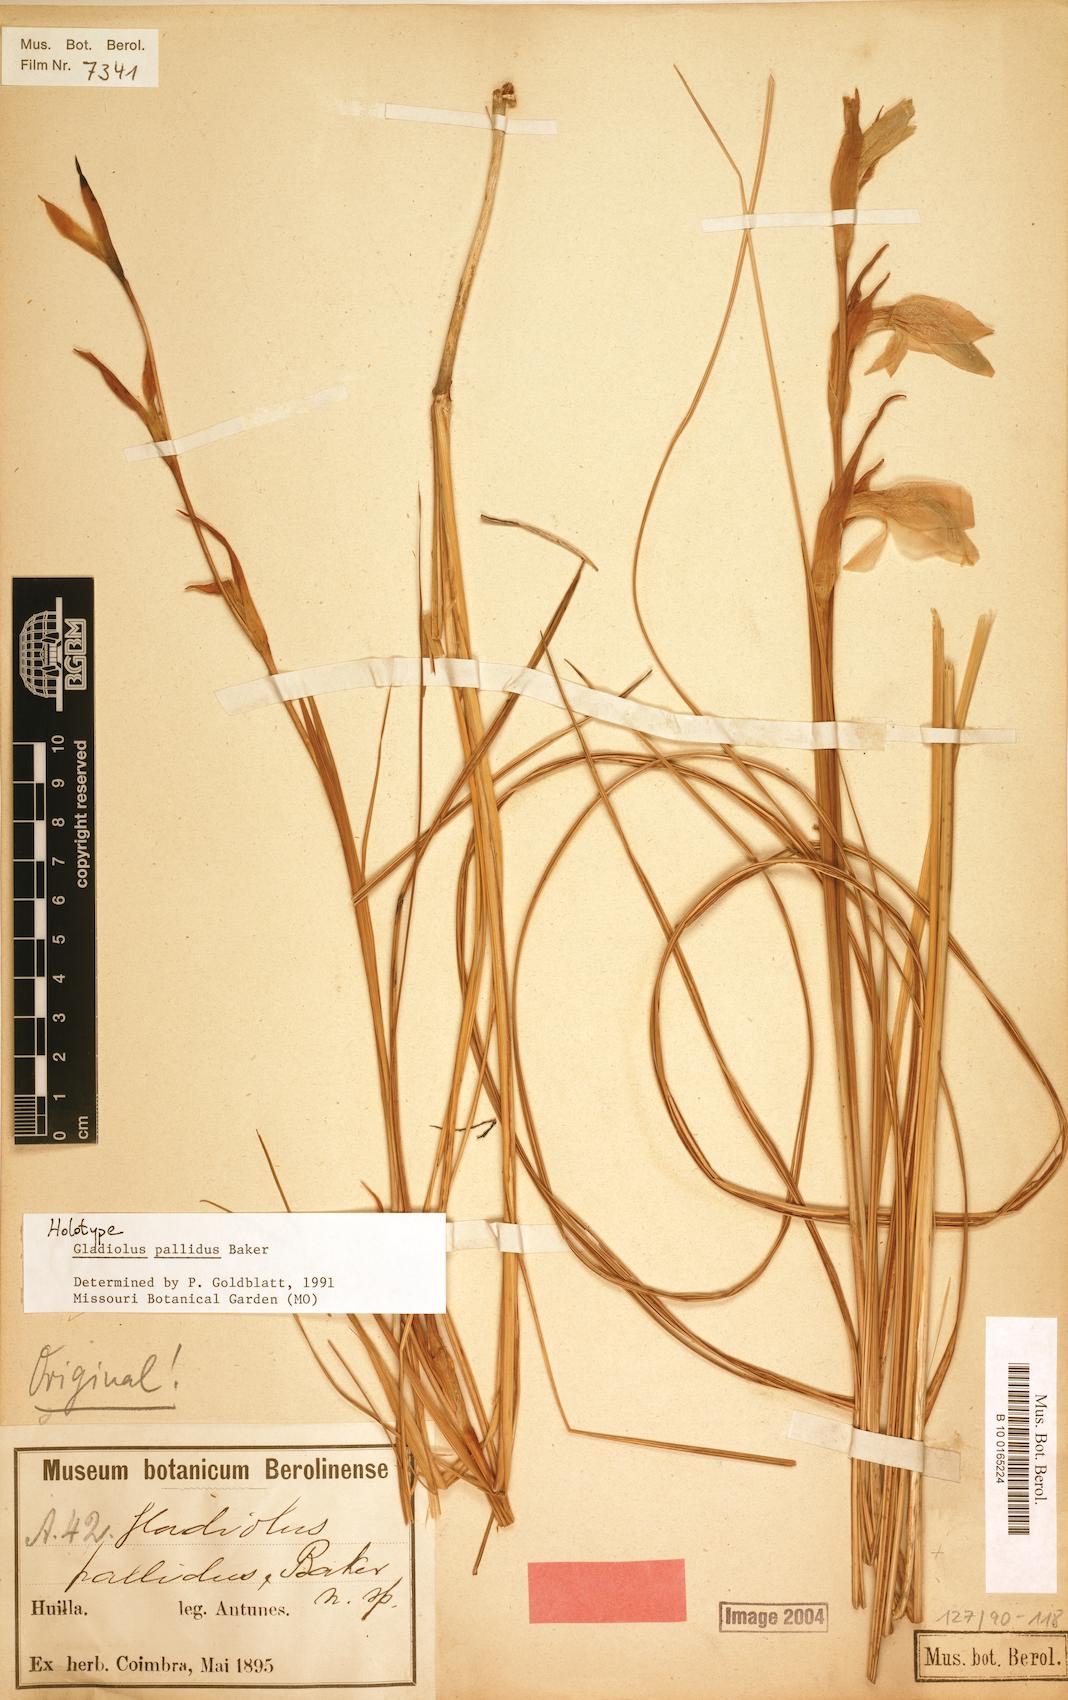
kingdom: Plantae
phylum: Tracheophyta
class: Liliopsida
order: Asparagales
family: Iridaceae
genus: Gladiolus
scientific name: Gladiolus baumii
